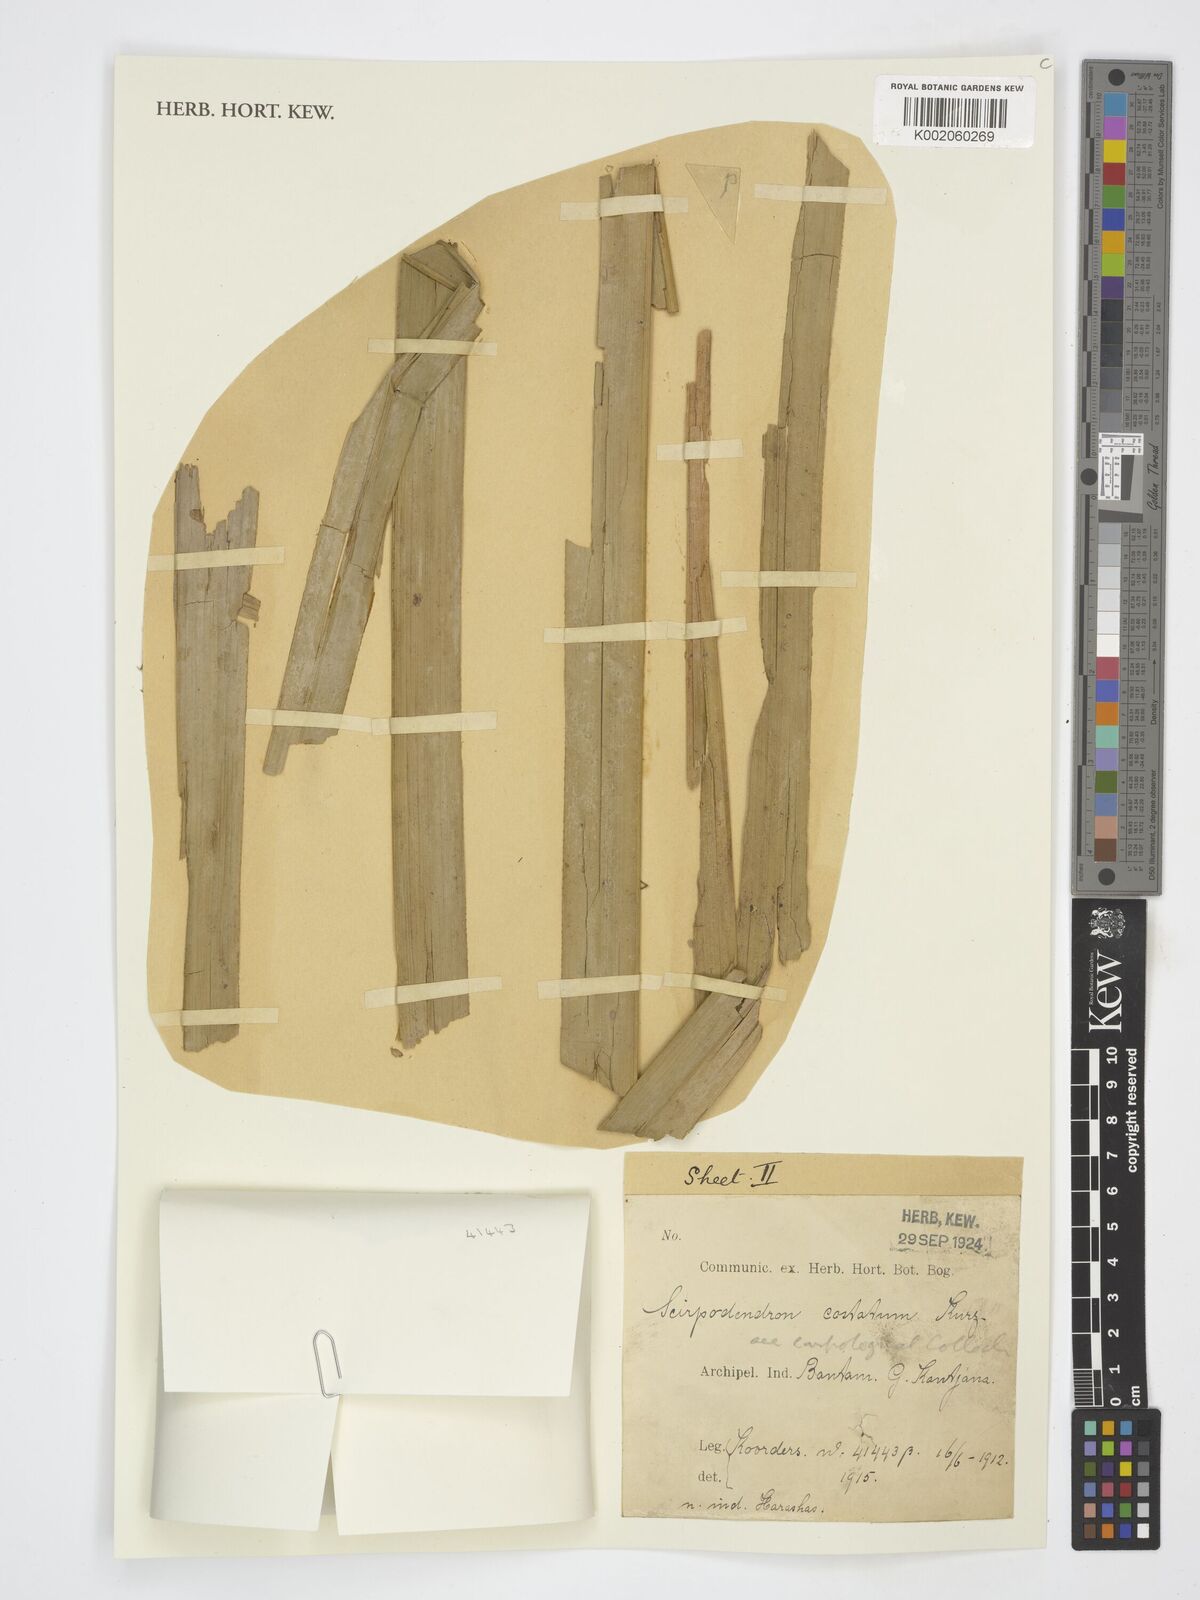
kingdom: Plantae
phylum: Tracheophyta
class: Liliopsida
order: Poales
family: Cyperaceae
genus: Scirpodendron
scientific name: Scirpodendron ghaeri
